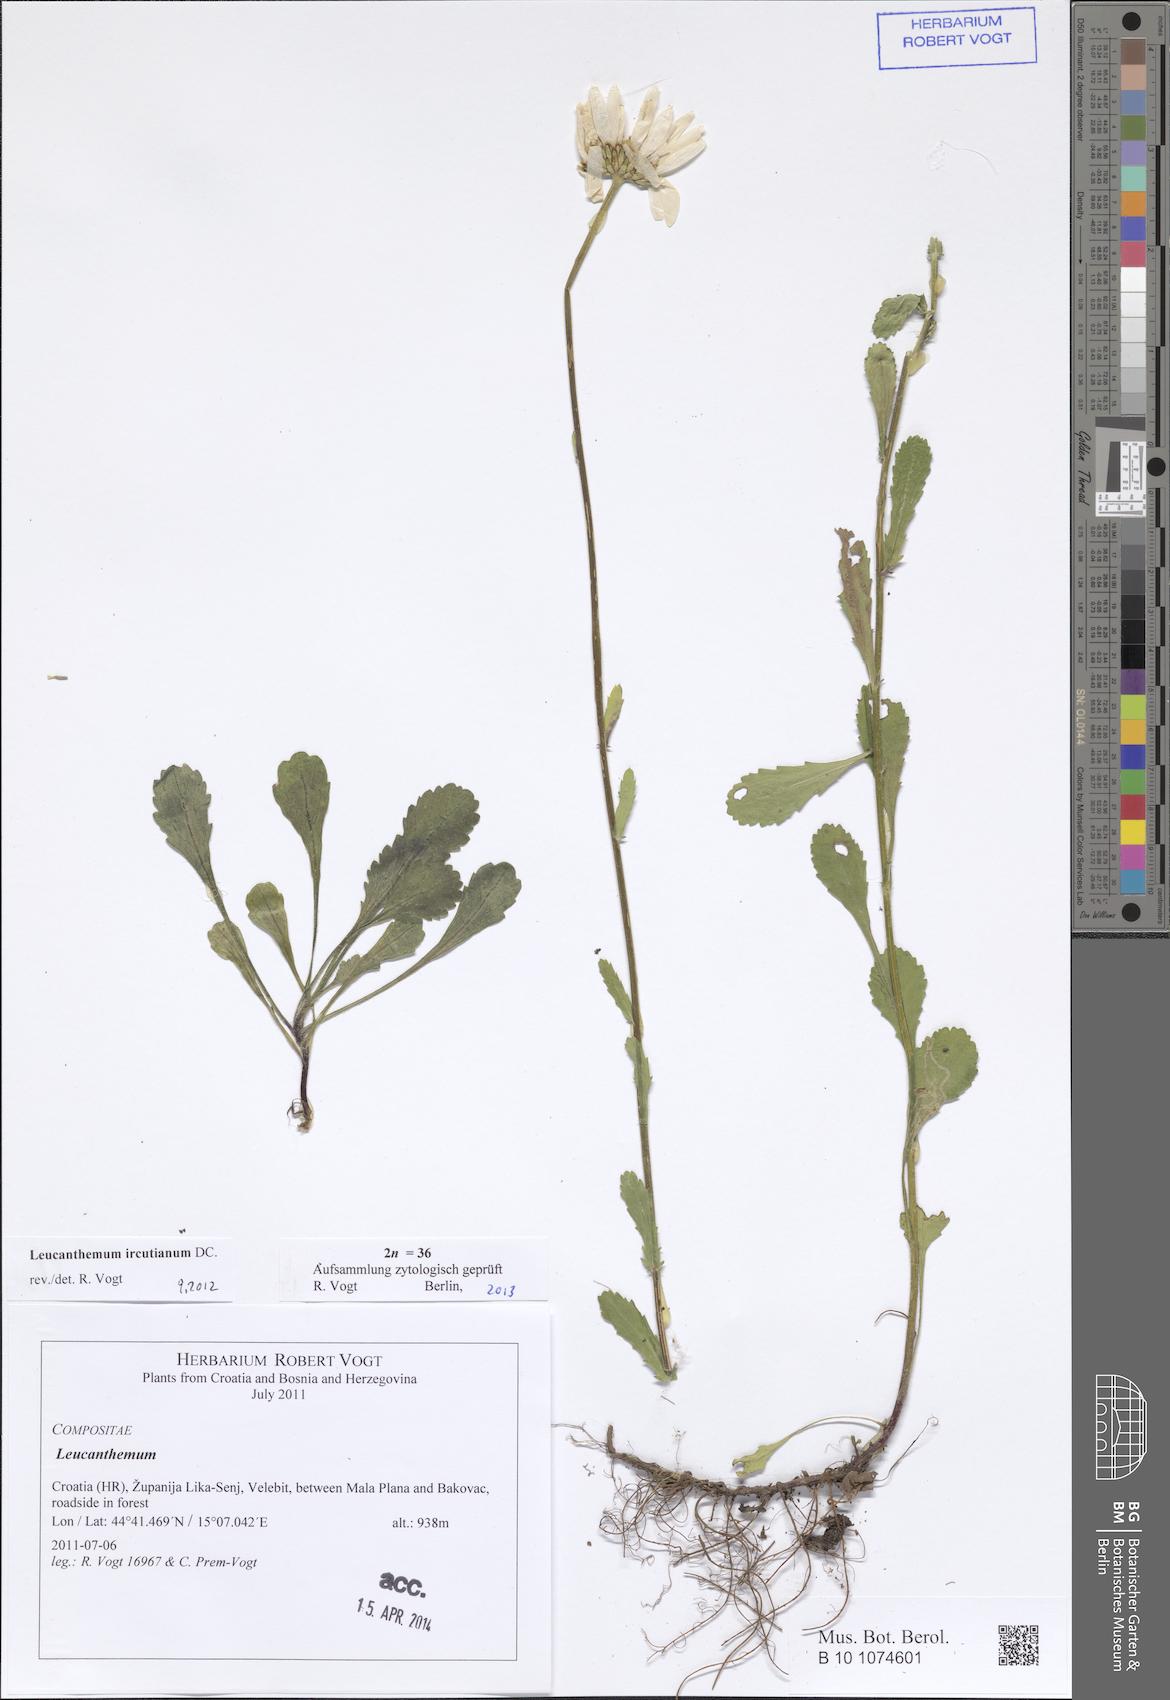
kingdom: Plantae
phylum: Tracheophyta
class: Magnoliopsida
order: Asterales
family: Asteraceae
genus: Leucanthemum
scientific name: Leucanthemum ircutianum
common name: Daisy
